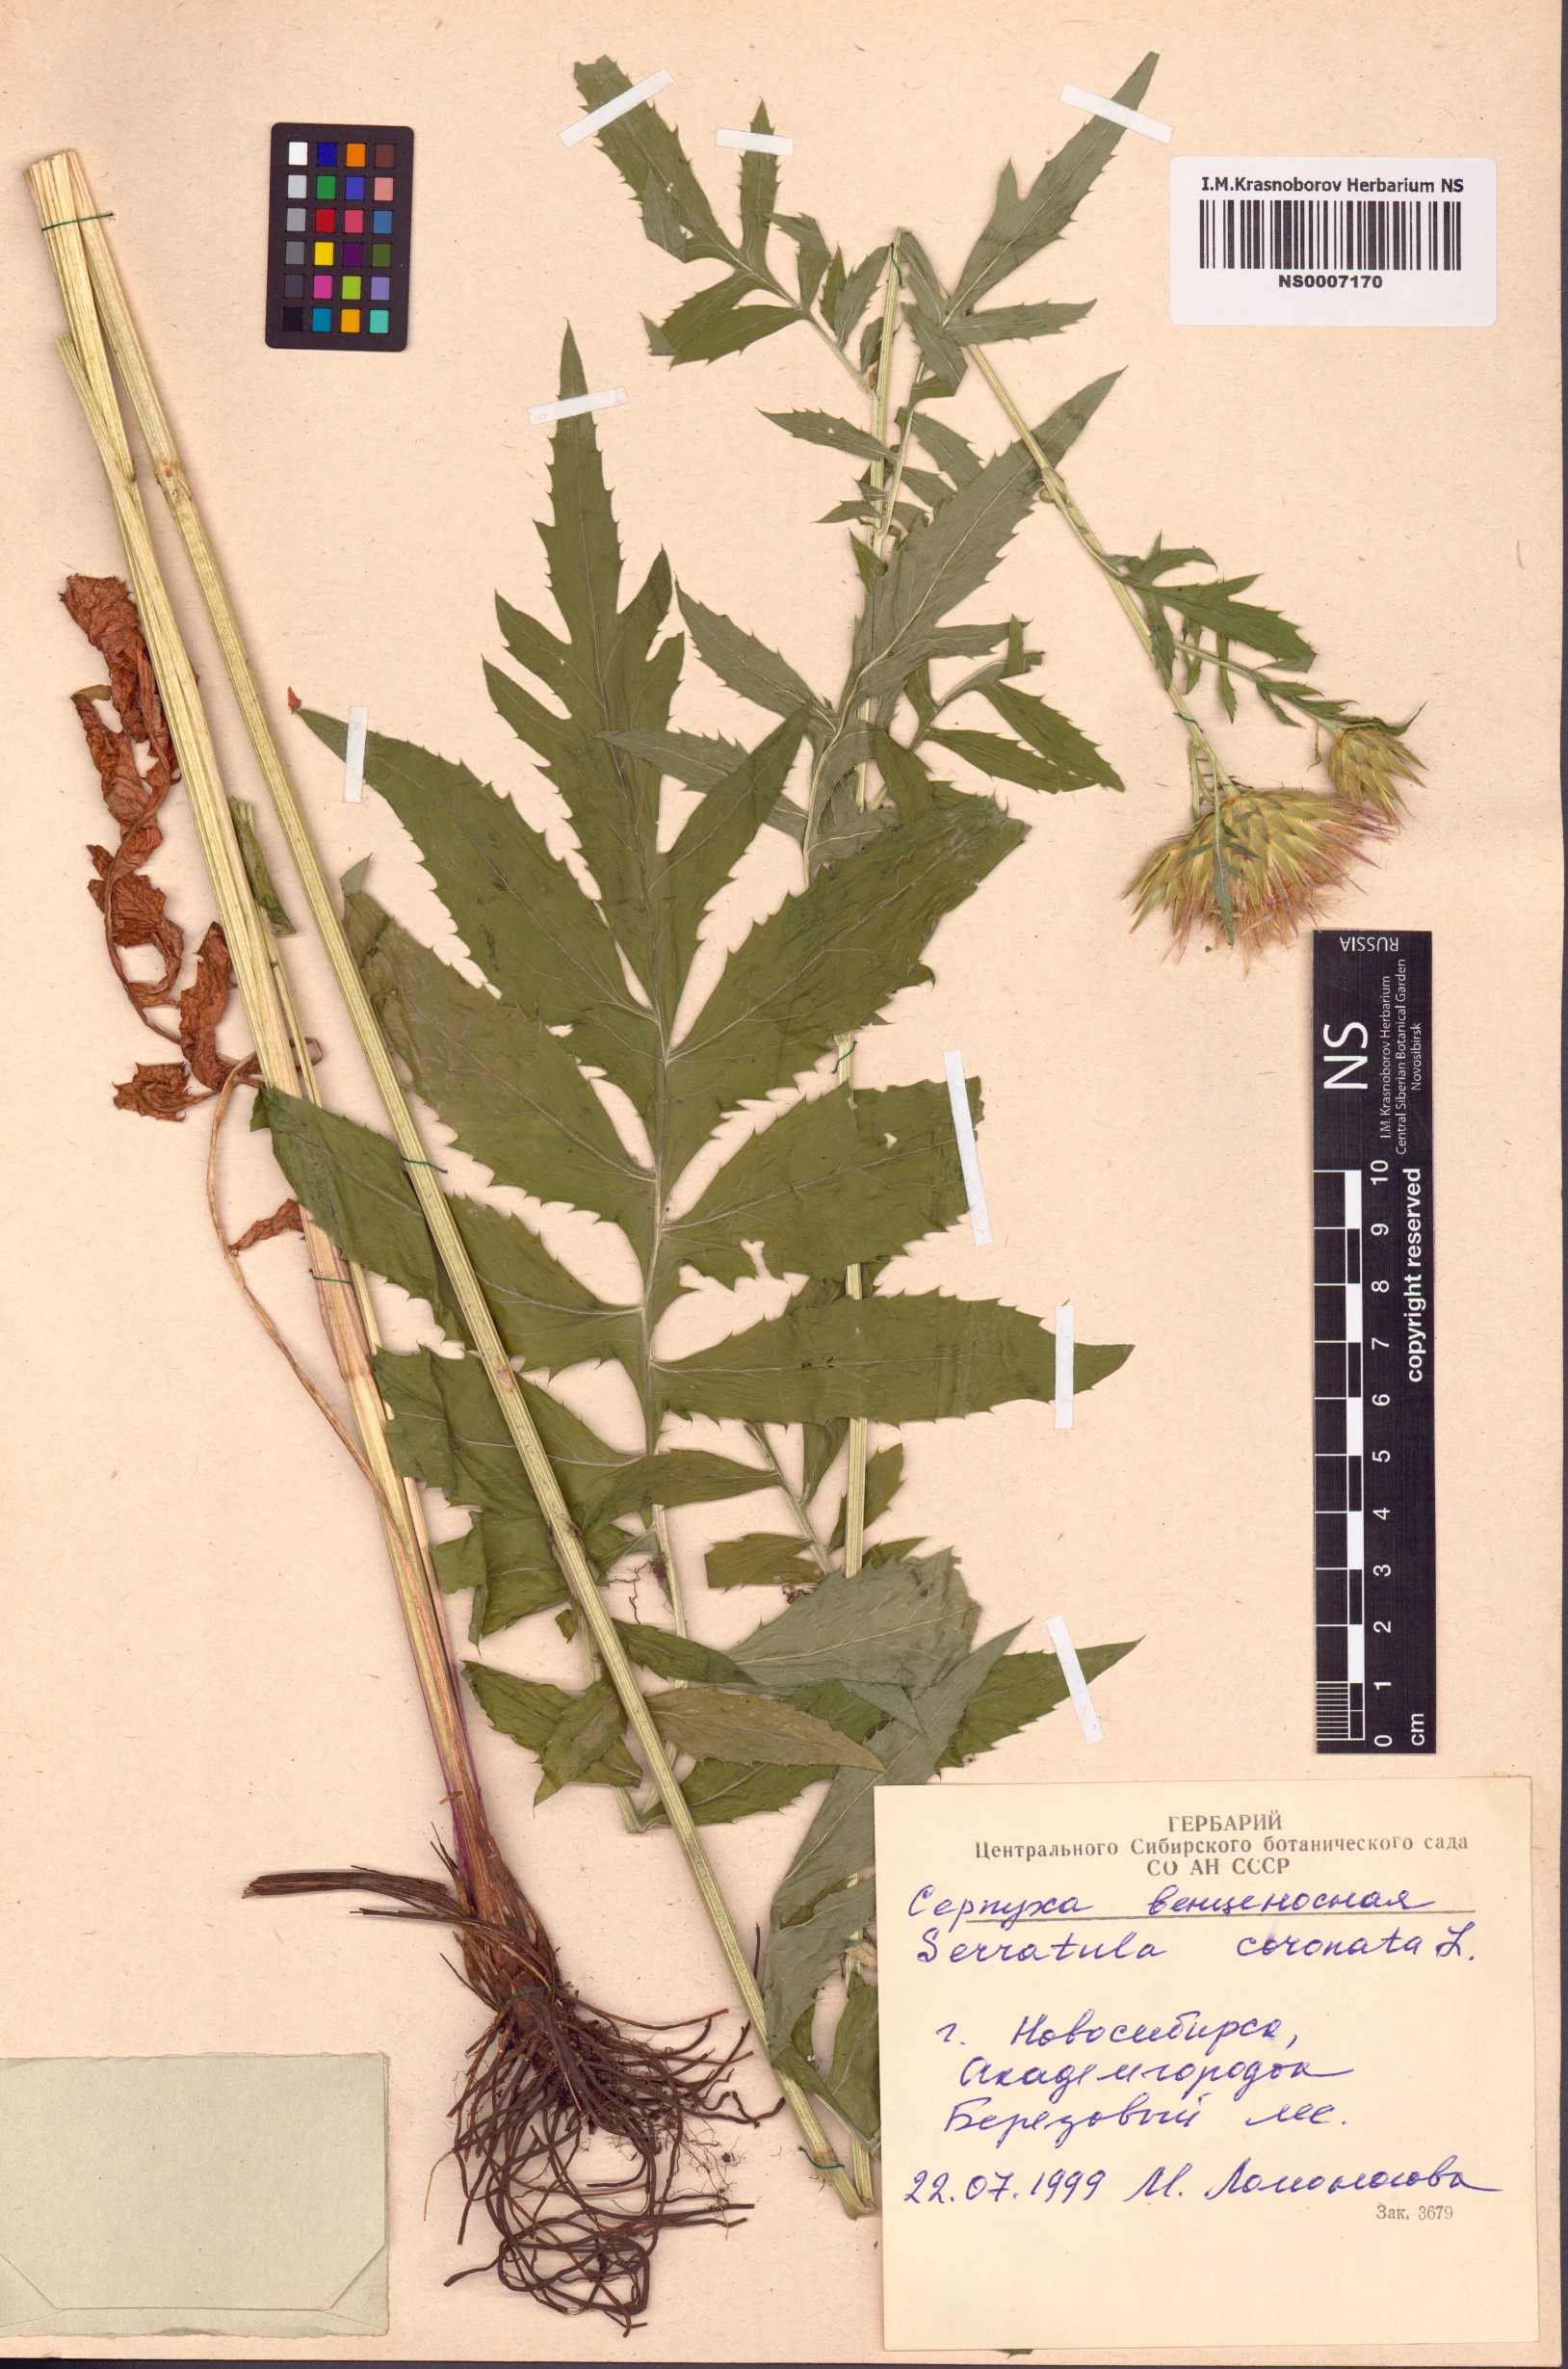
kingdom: Plantae
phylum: Tracheophyta
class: Magnoliopsida
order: Asterales
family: Asteraceae
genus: Serratula
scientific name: Serratula coronata
